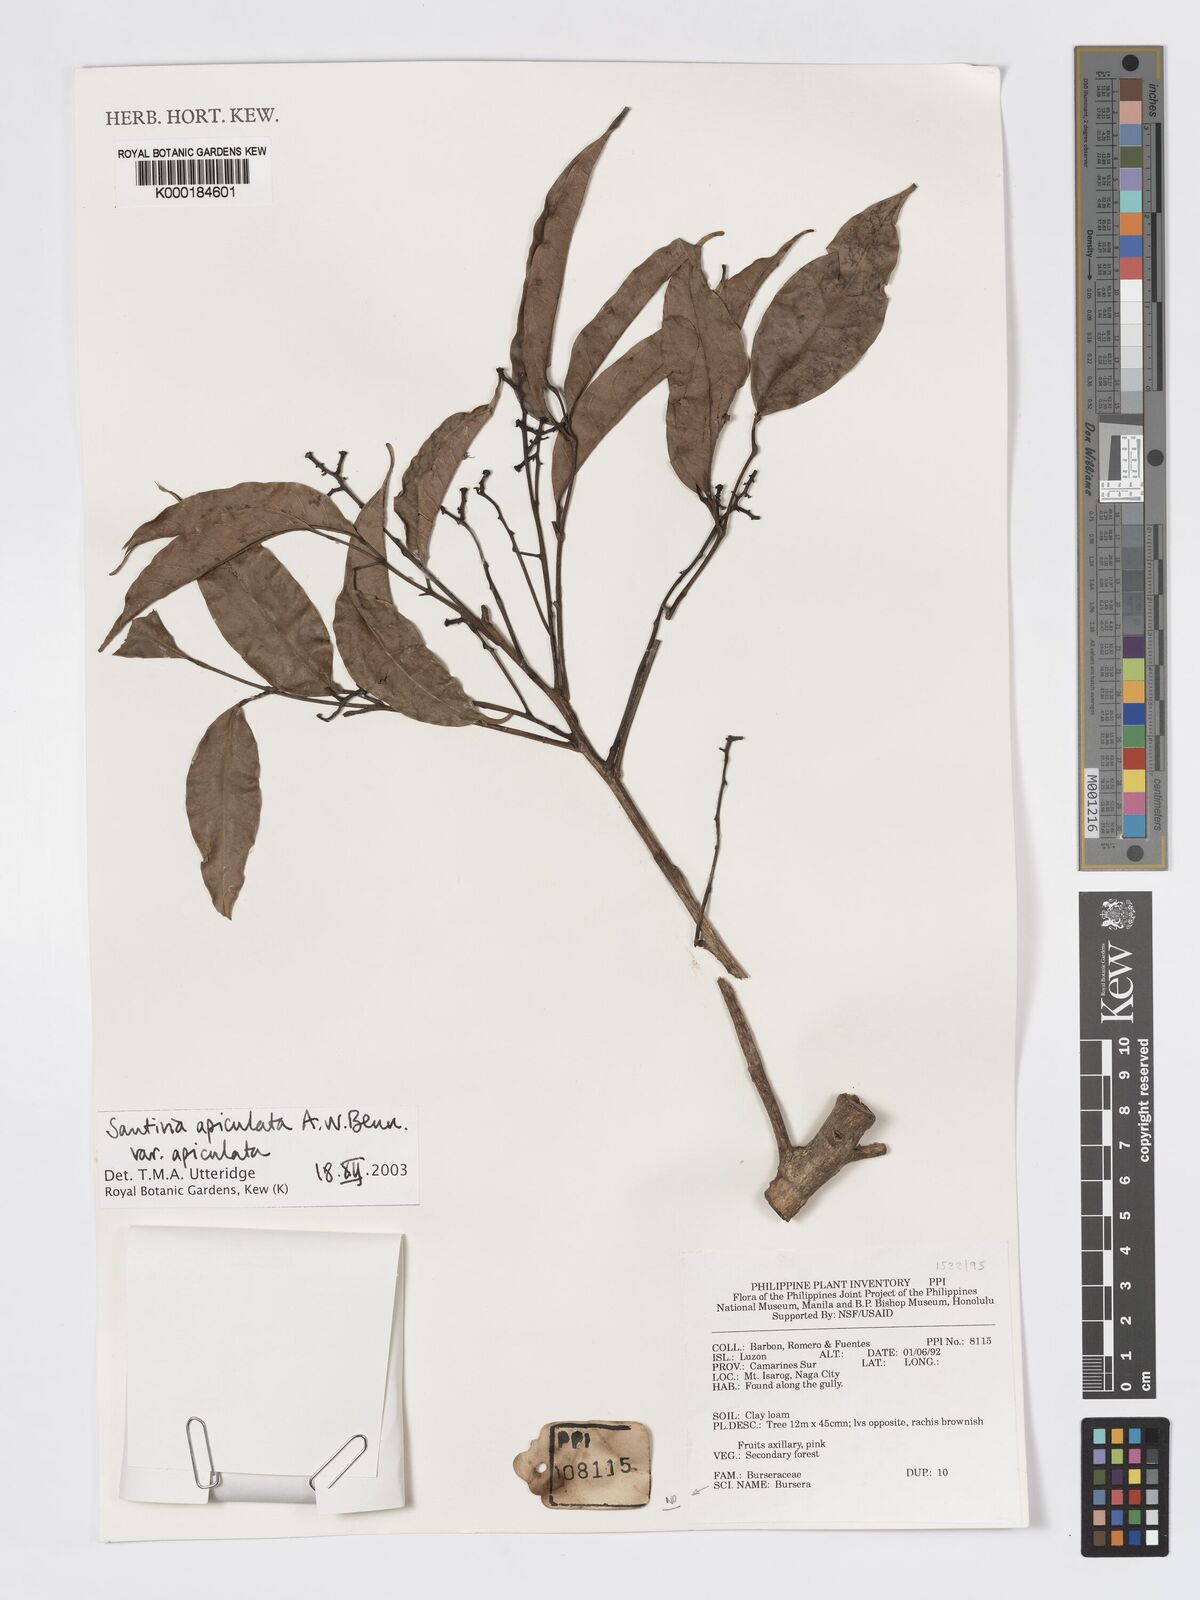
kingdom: Plantae
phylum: Tracheophyta
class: Magnoliopsida
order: Sapindales
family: Burseraceae
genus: Santiria
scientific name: Santiria apiculata
